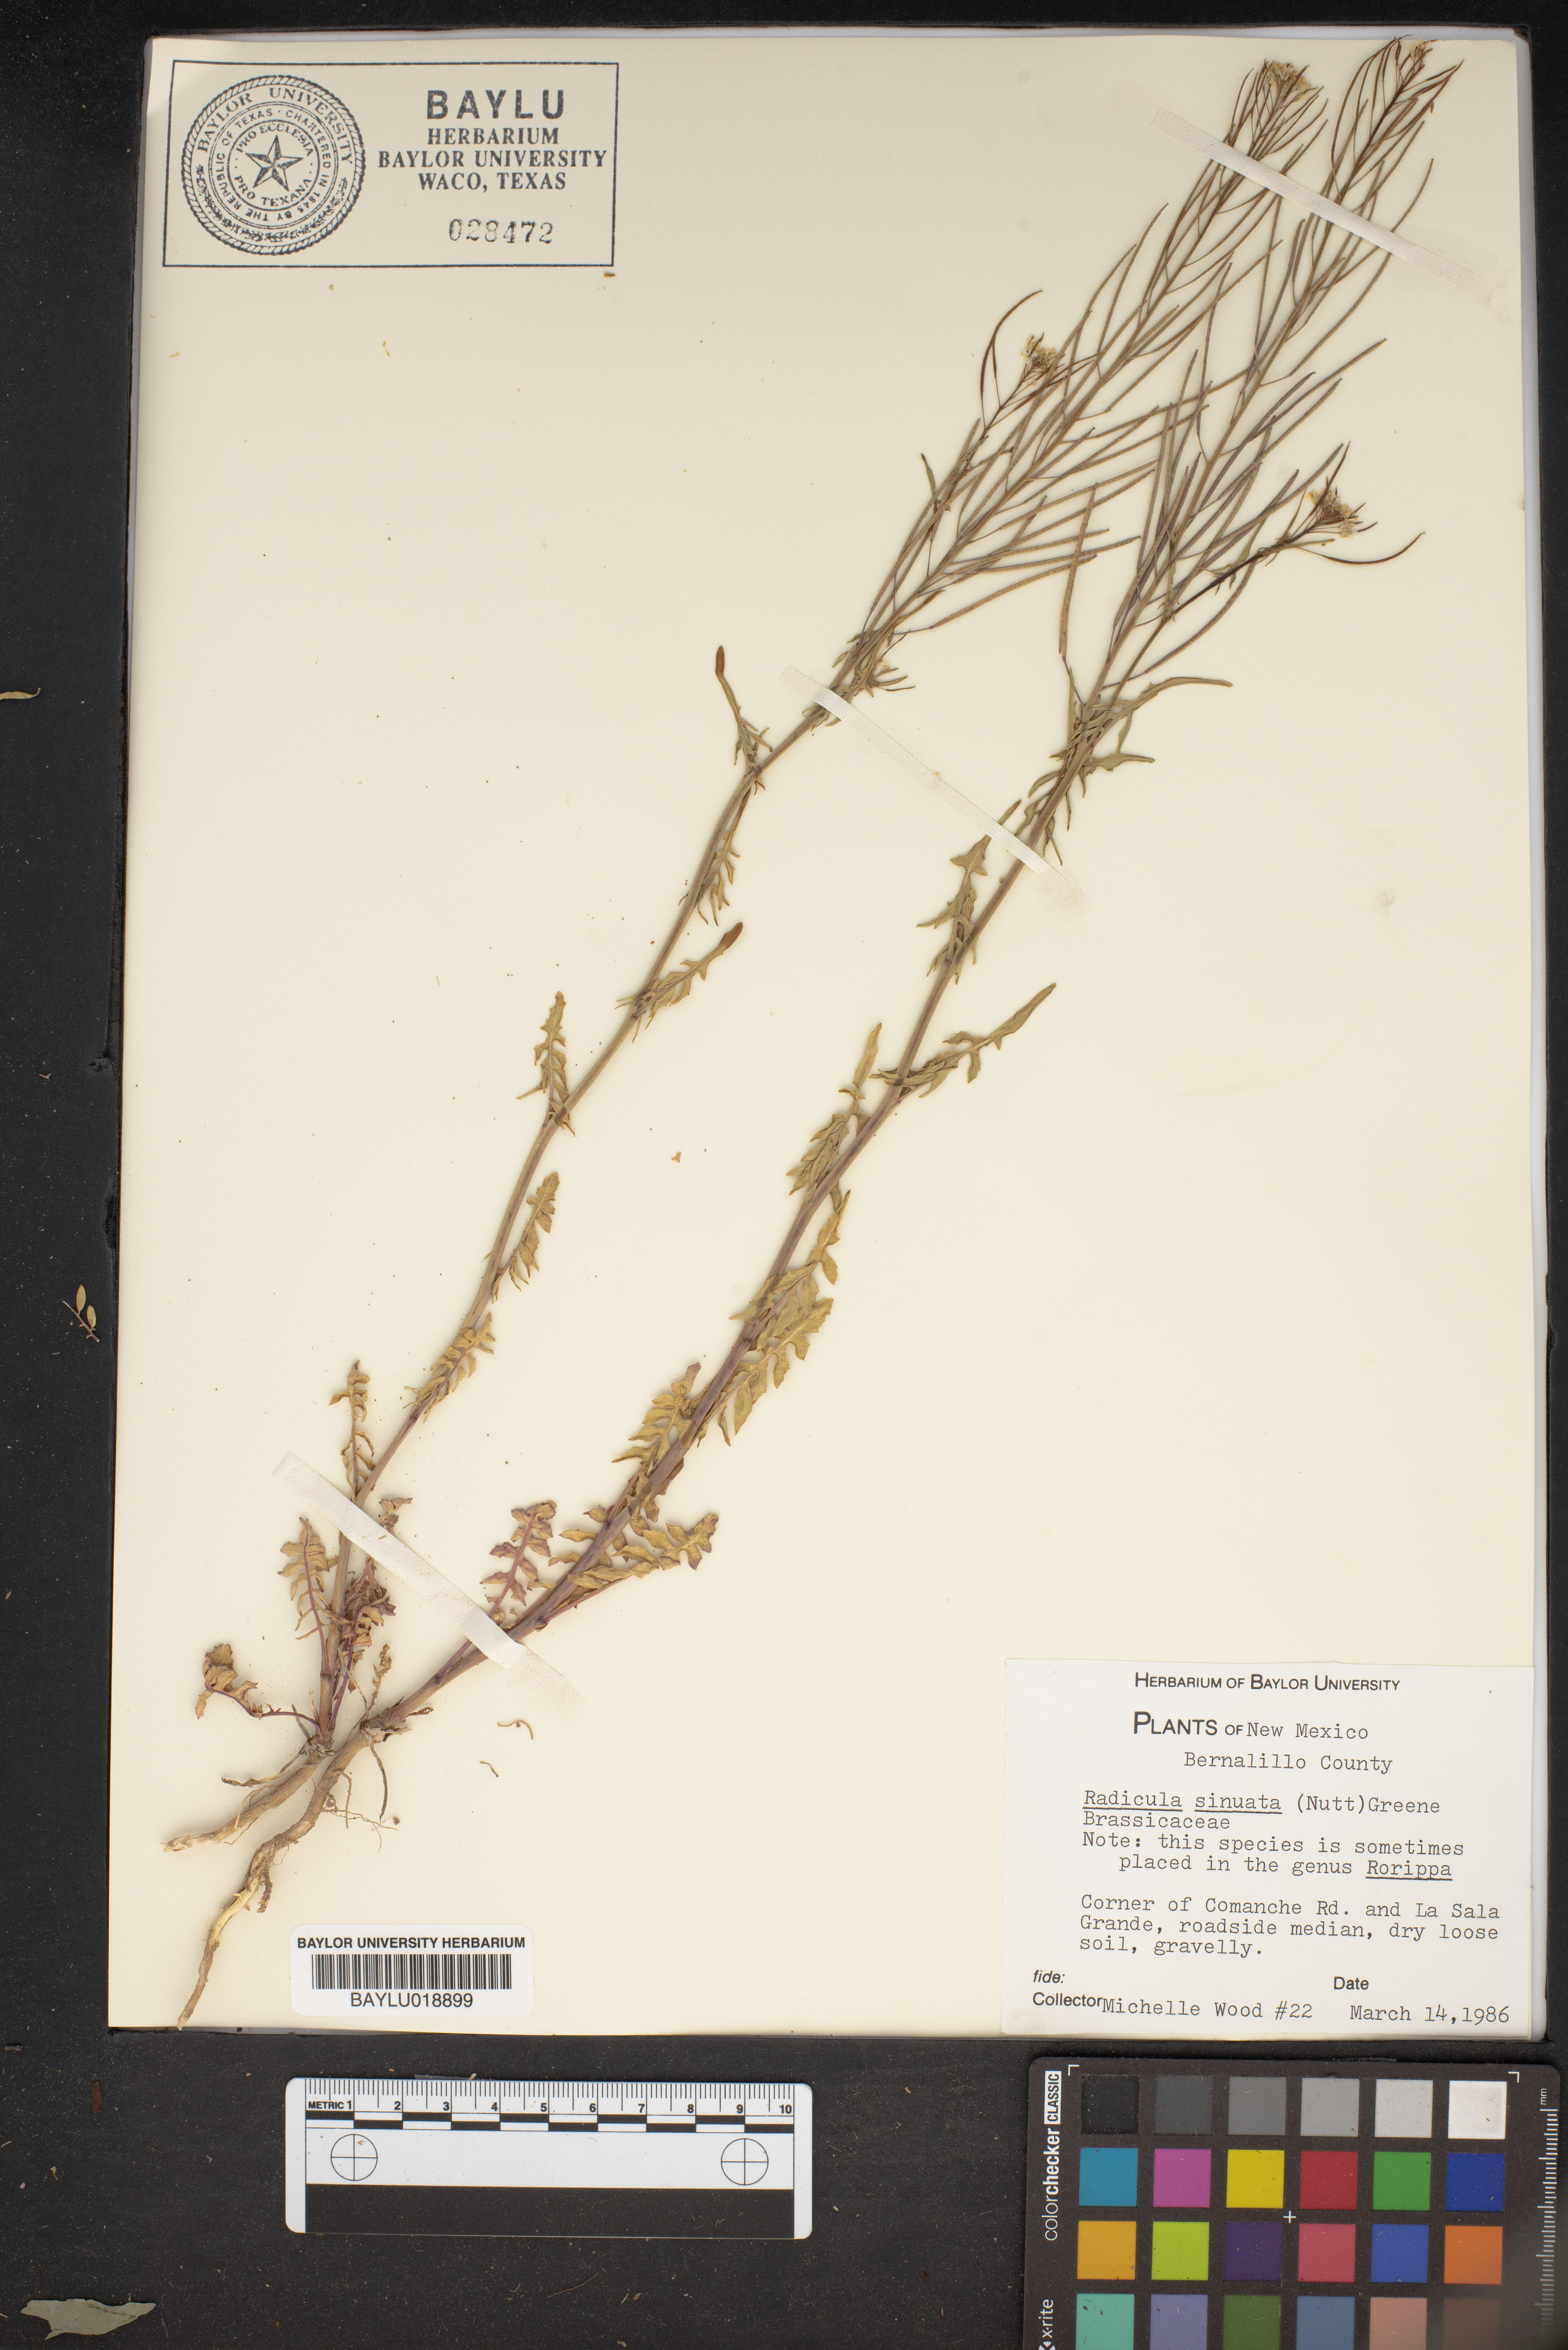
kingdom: Plantae
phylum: Tracheophyta
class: Magnoliopsida
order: Brassicales
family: Brassicaceae
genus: Rorippa
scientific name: Rorippa sinuata
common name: Spread yellow cress
